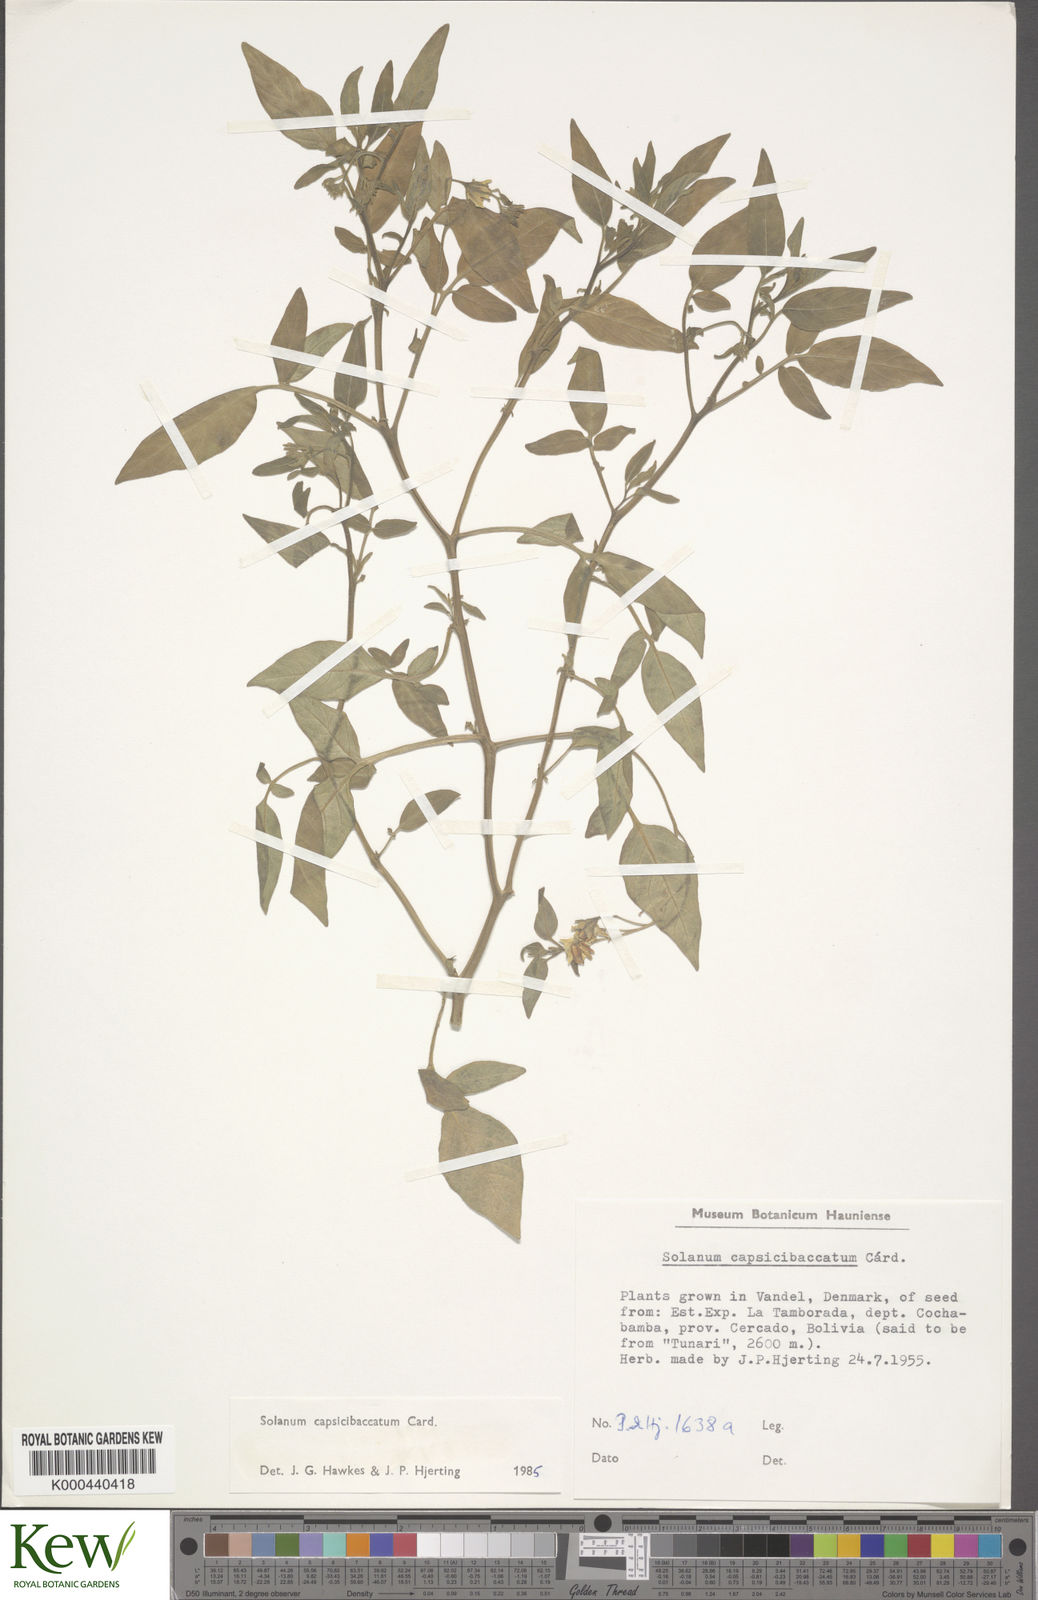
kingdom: Plantae
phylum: Tracheophyta
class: Magnoliopsida
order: Solanales
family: Solanaceae
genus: Solanum
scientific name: Solanum stipuloideum
